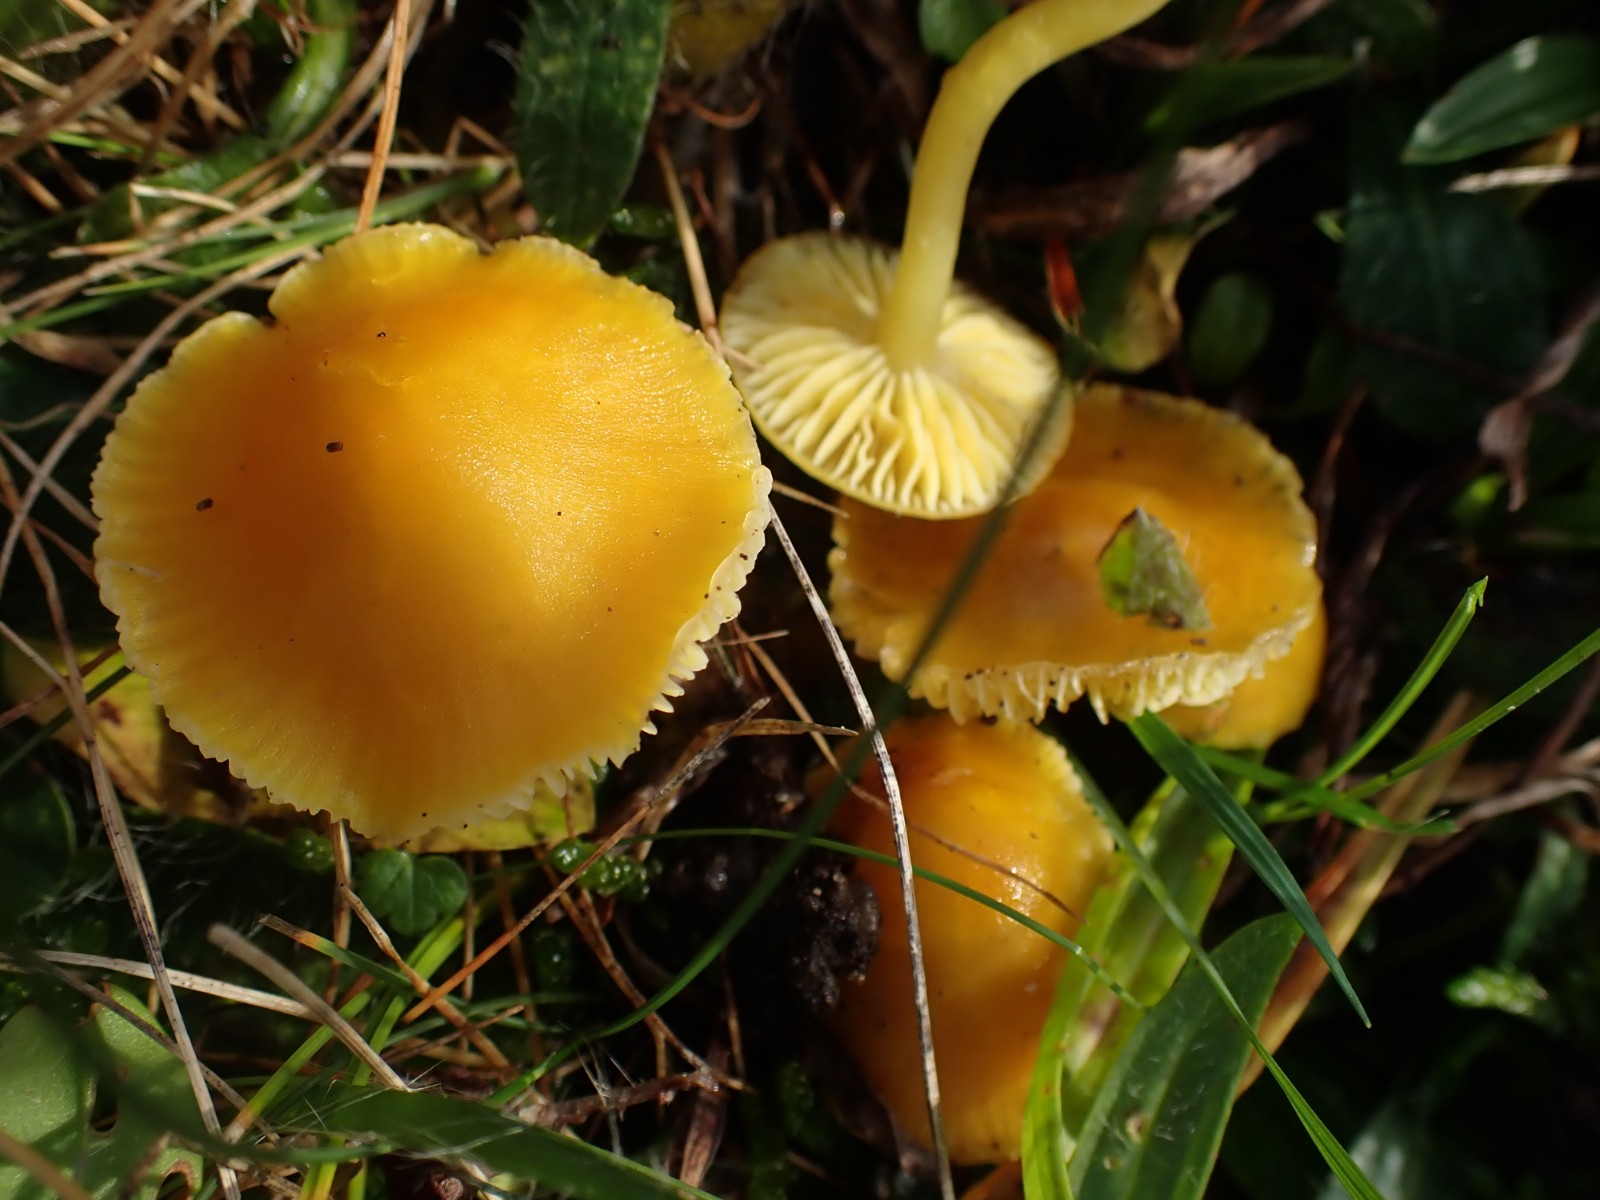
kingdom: Fungi
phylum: Basidiomycota
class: Agaricomycetes
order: Agaricales
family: Hygrophoraceae
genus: Hygrocybe
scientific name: Hygrocybe ceracea
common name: voksgul vokshat
